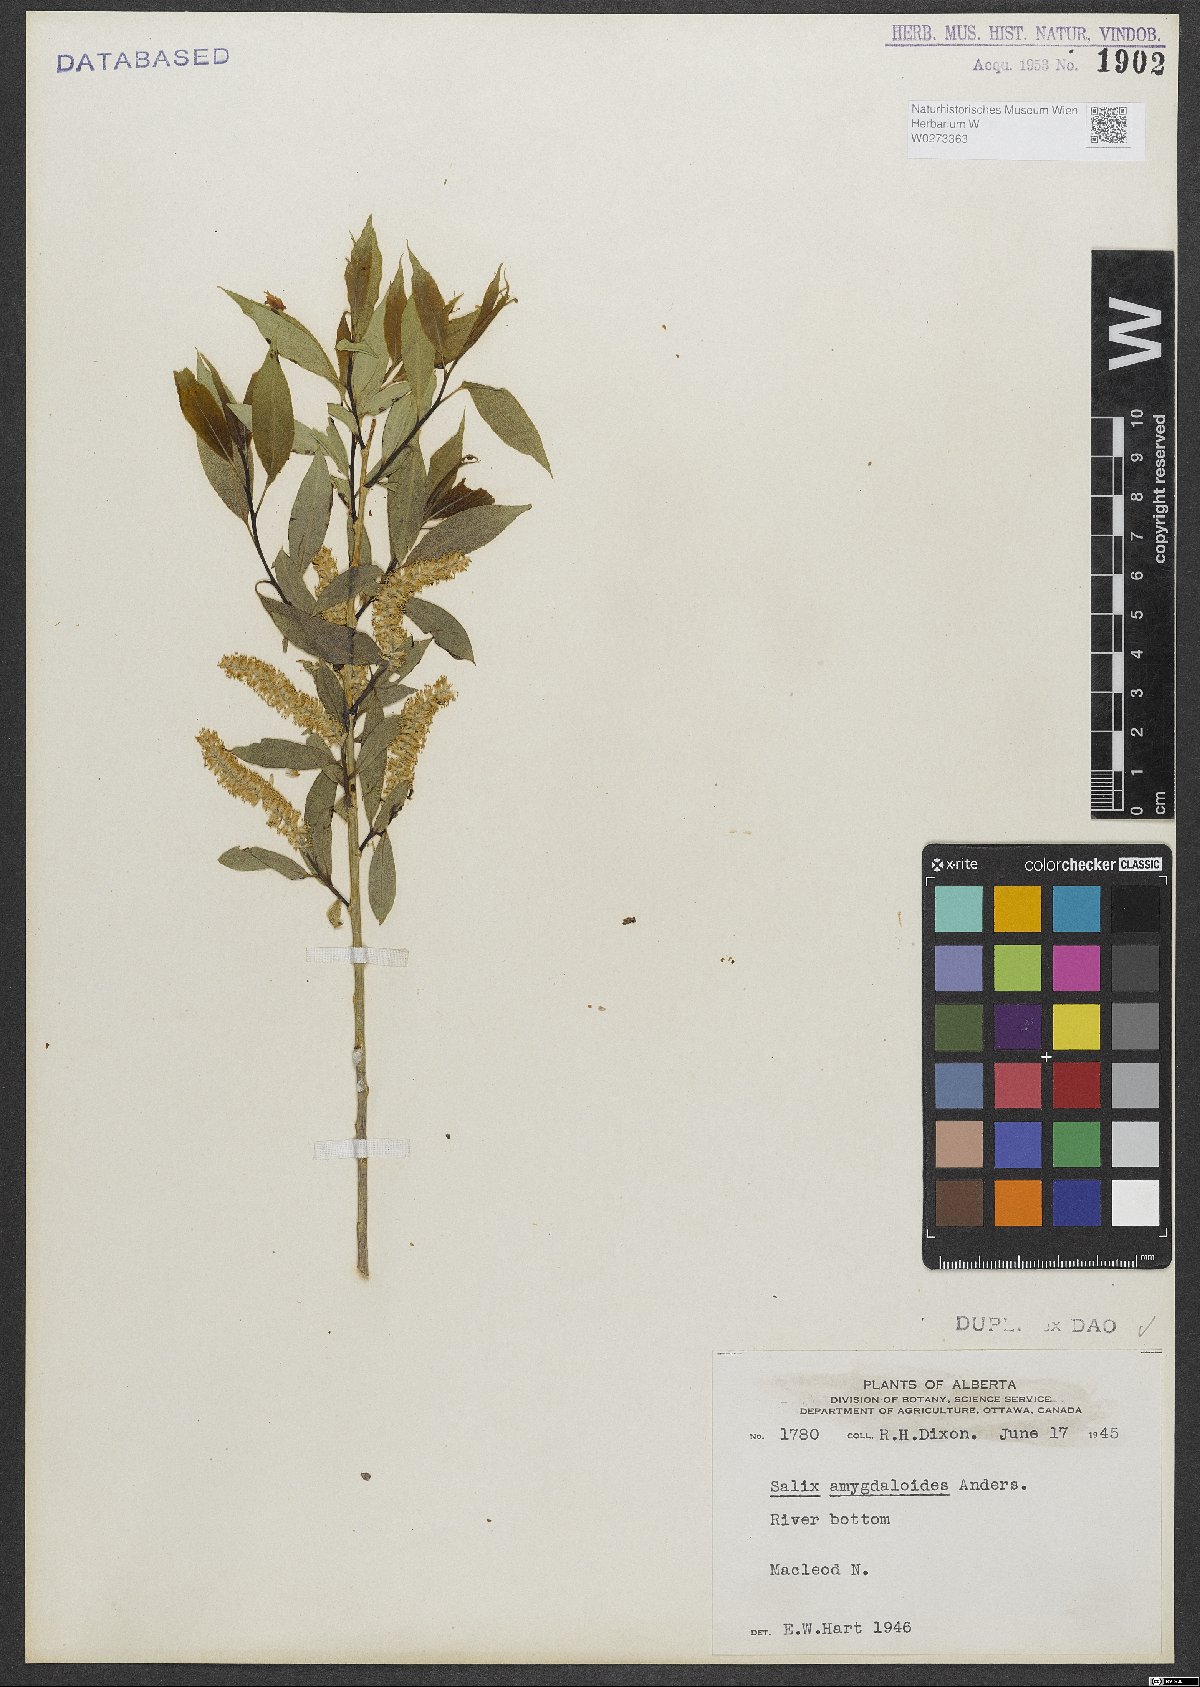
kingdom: Plantae
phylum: Tracheophyta
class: Magnoliopsida
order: Malpighiales
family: Salicaceae
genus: Salix
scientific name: Salix amygdaloides
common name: Peach leaf willow
